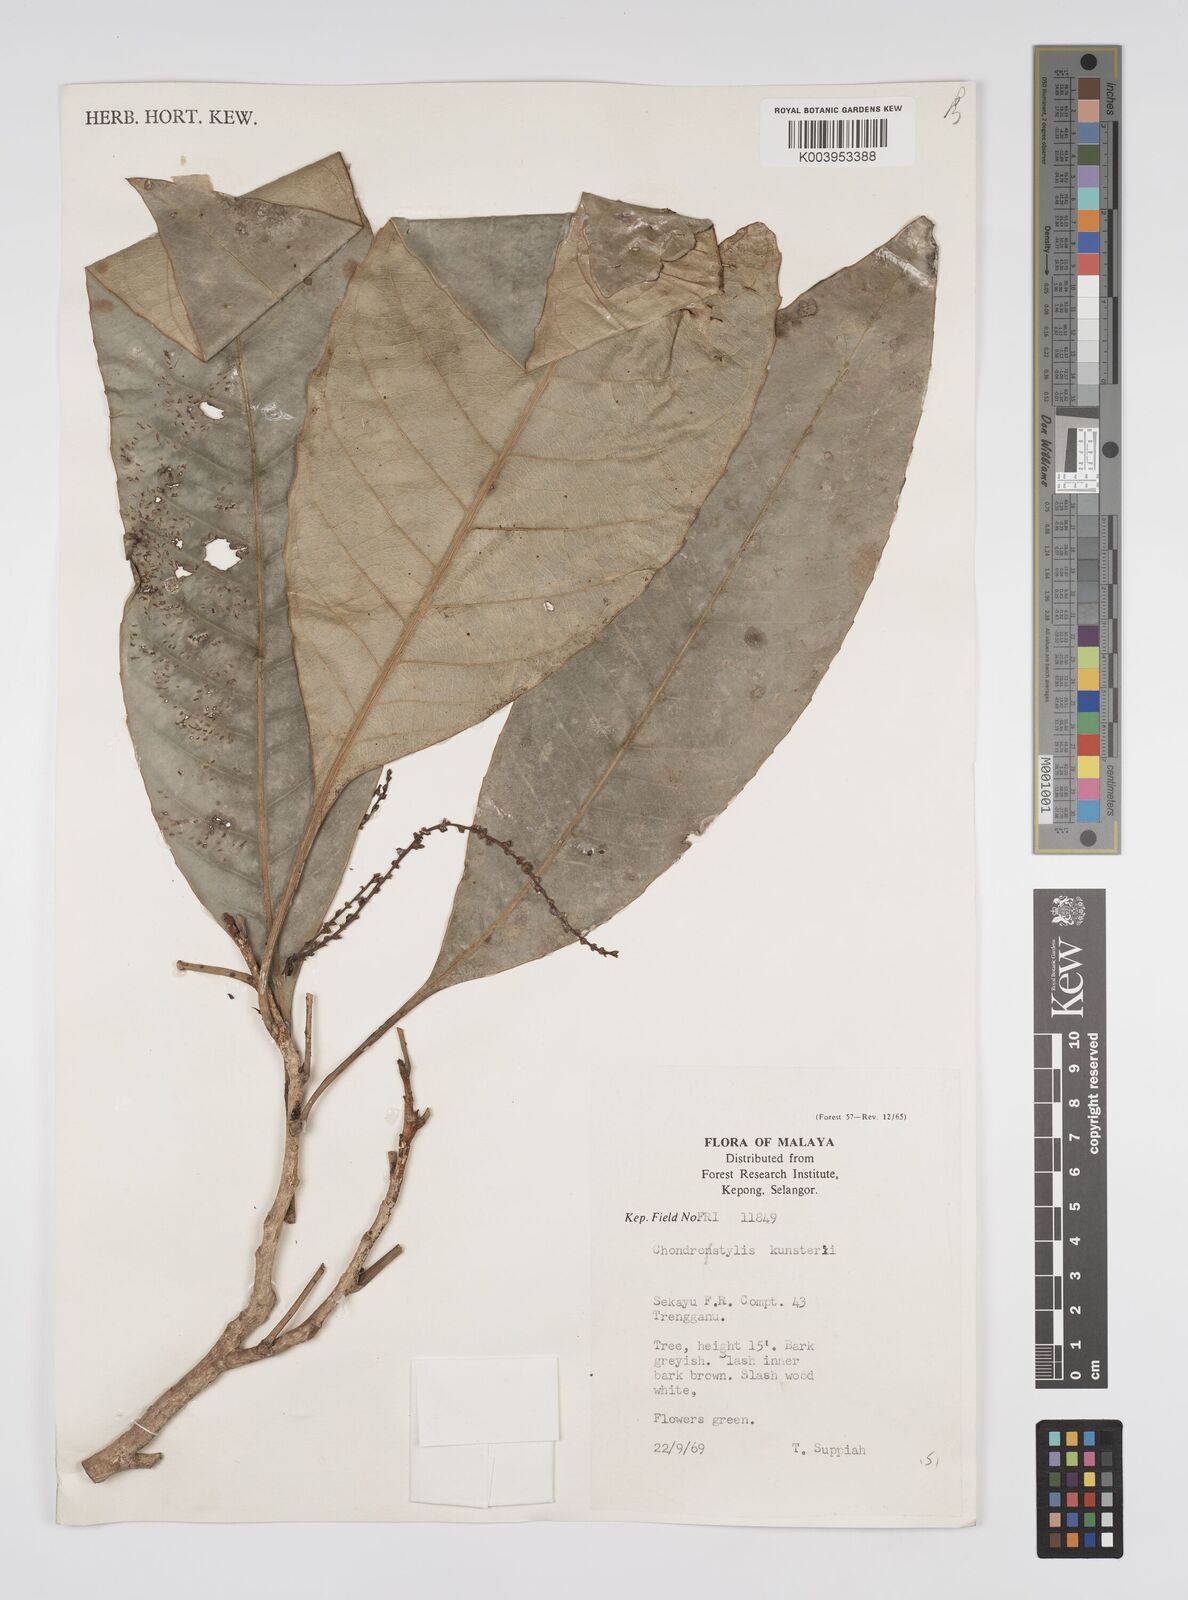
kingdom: Plantae
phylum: Tracheophyta
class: Magnoliopsida
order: Malpighiales
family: Euphorbiaceae
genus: Chondrostylis
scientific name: Chondrostylis kunstleri
